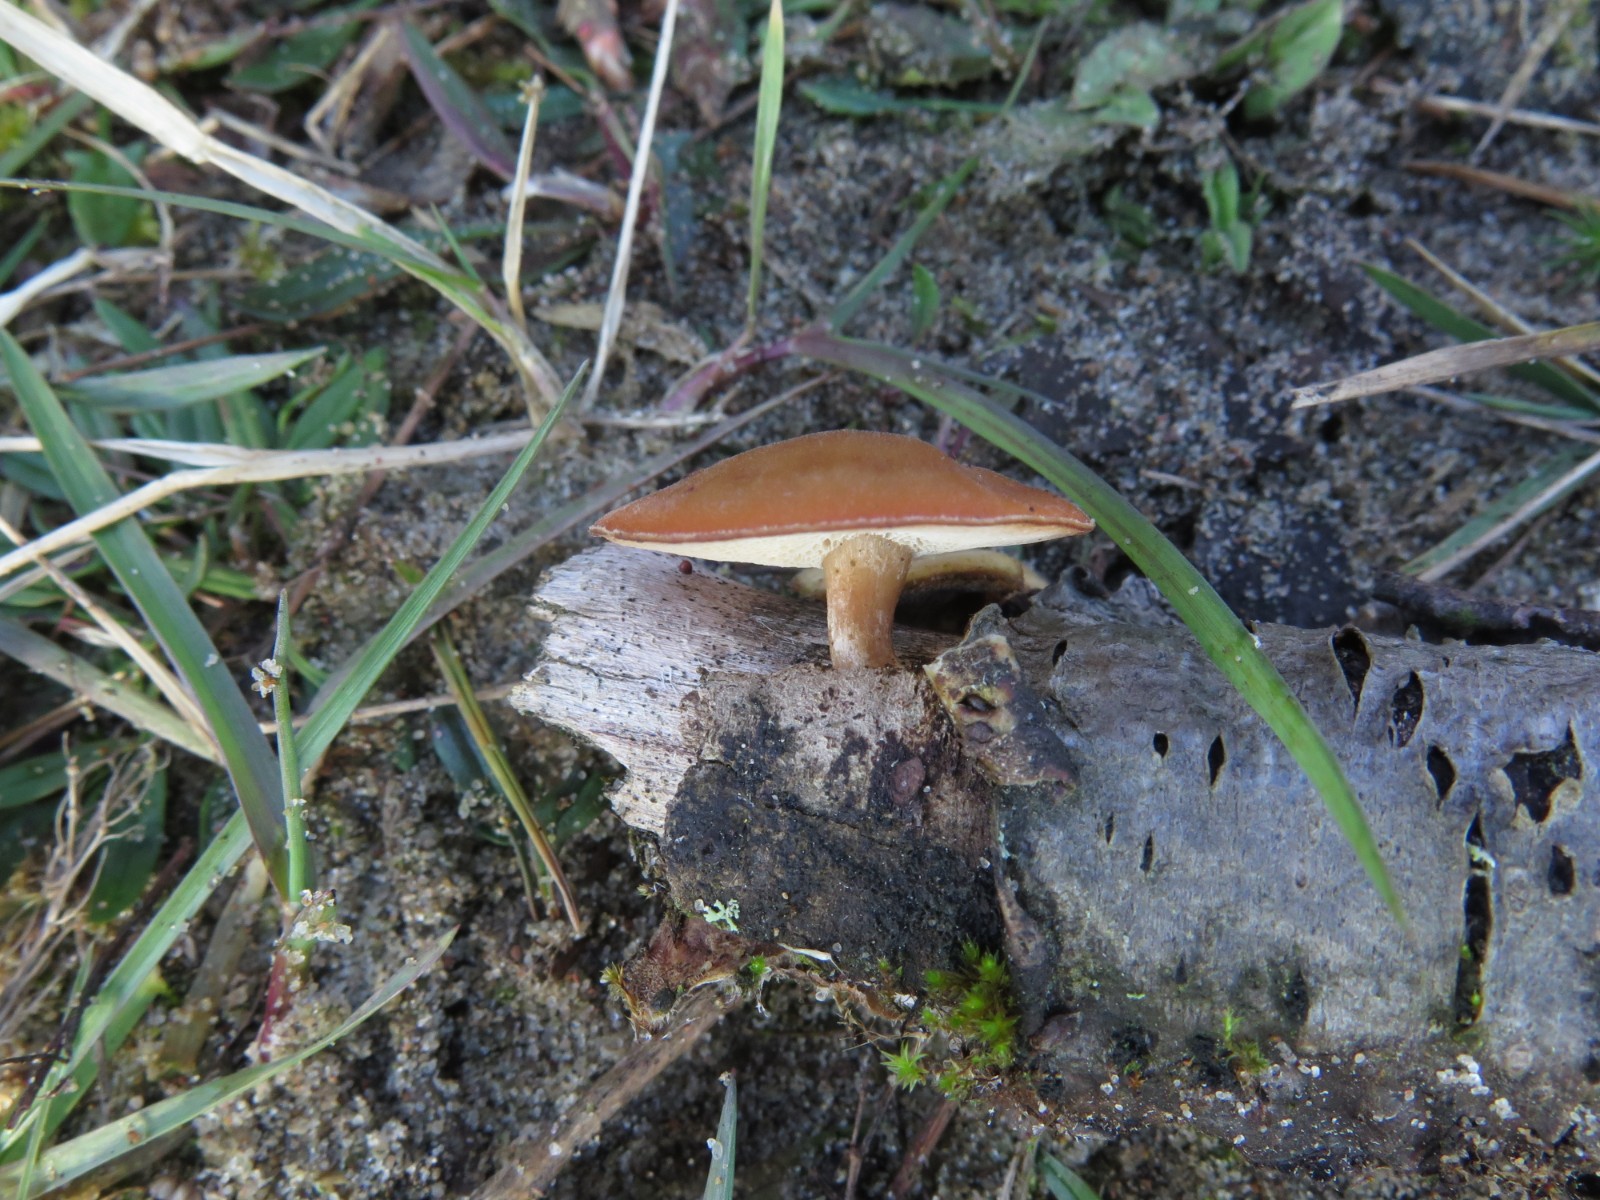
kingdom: Fungi
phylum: Basidiomycota
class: Agaricomycetes
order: Polyporales
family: Polyporaceae
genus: Lentinus
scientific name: Lentinus substrictus
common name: forårs-stilkporesvamp
